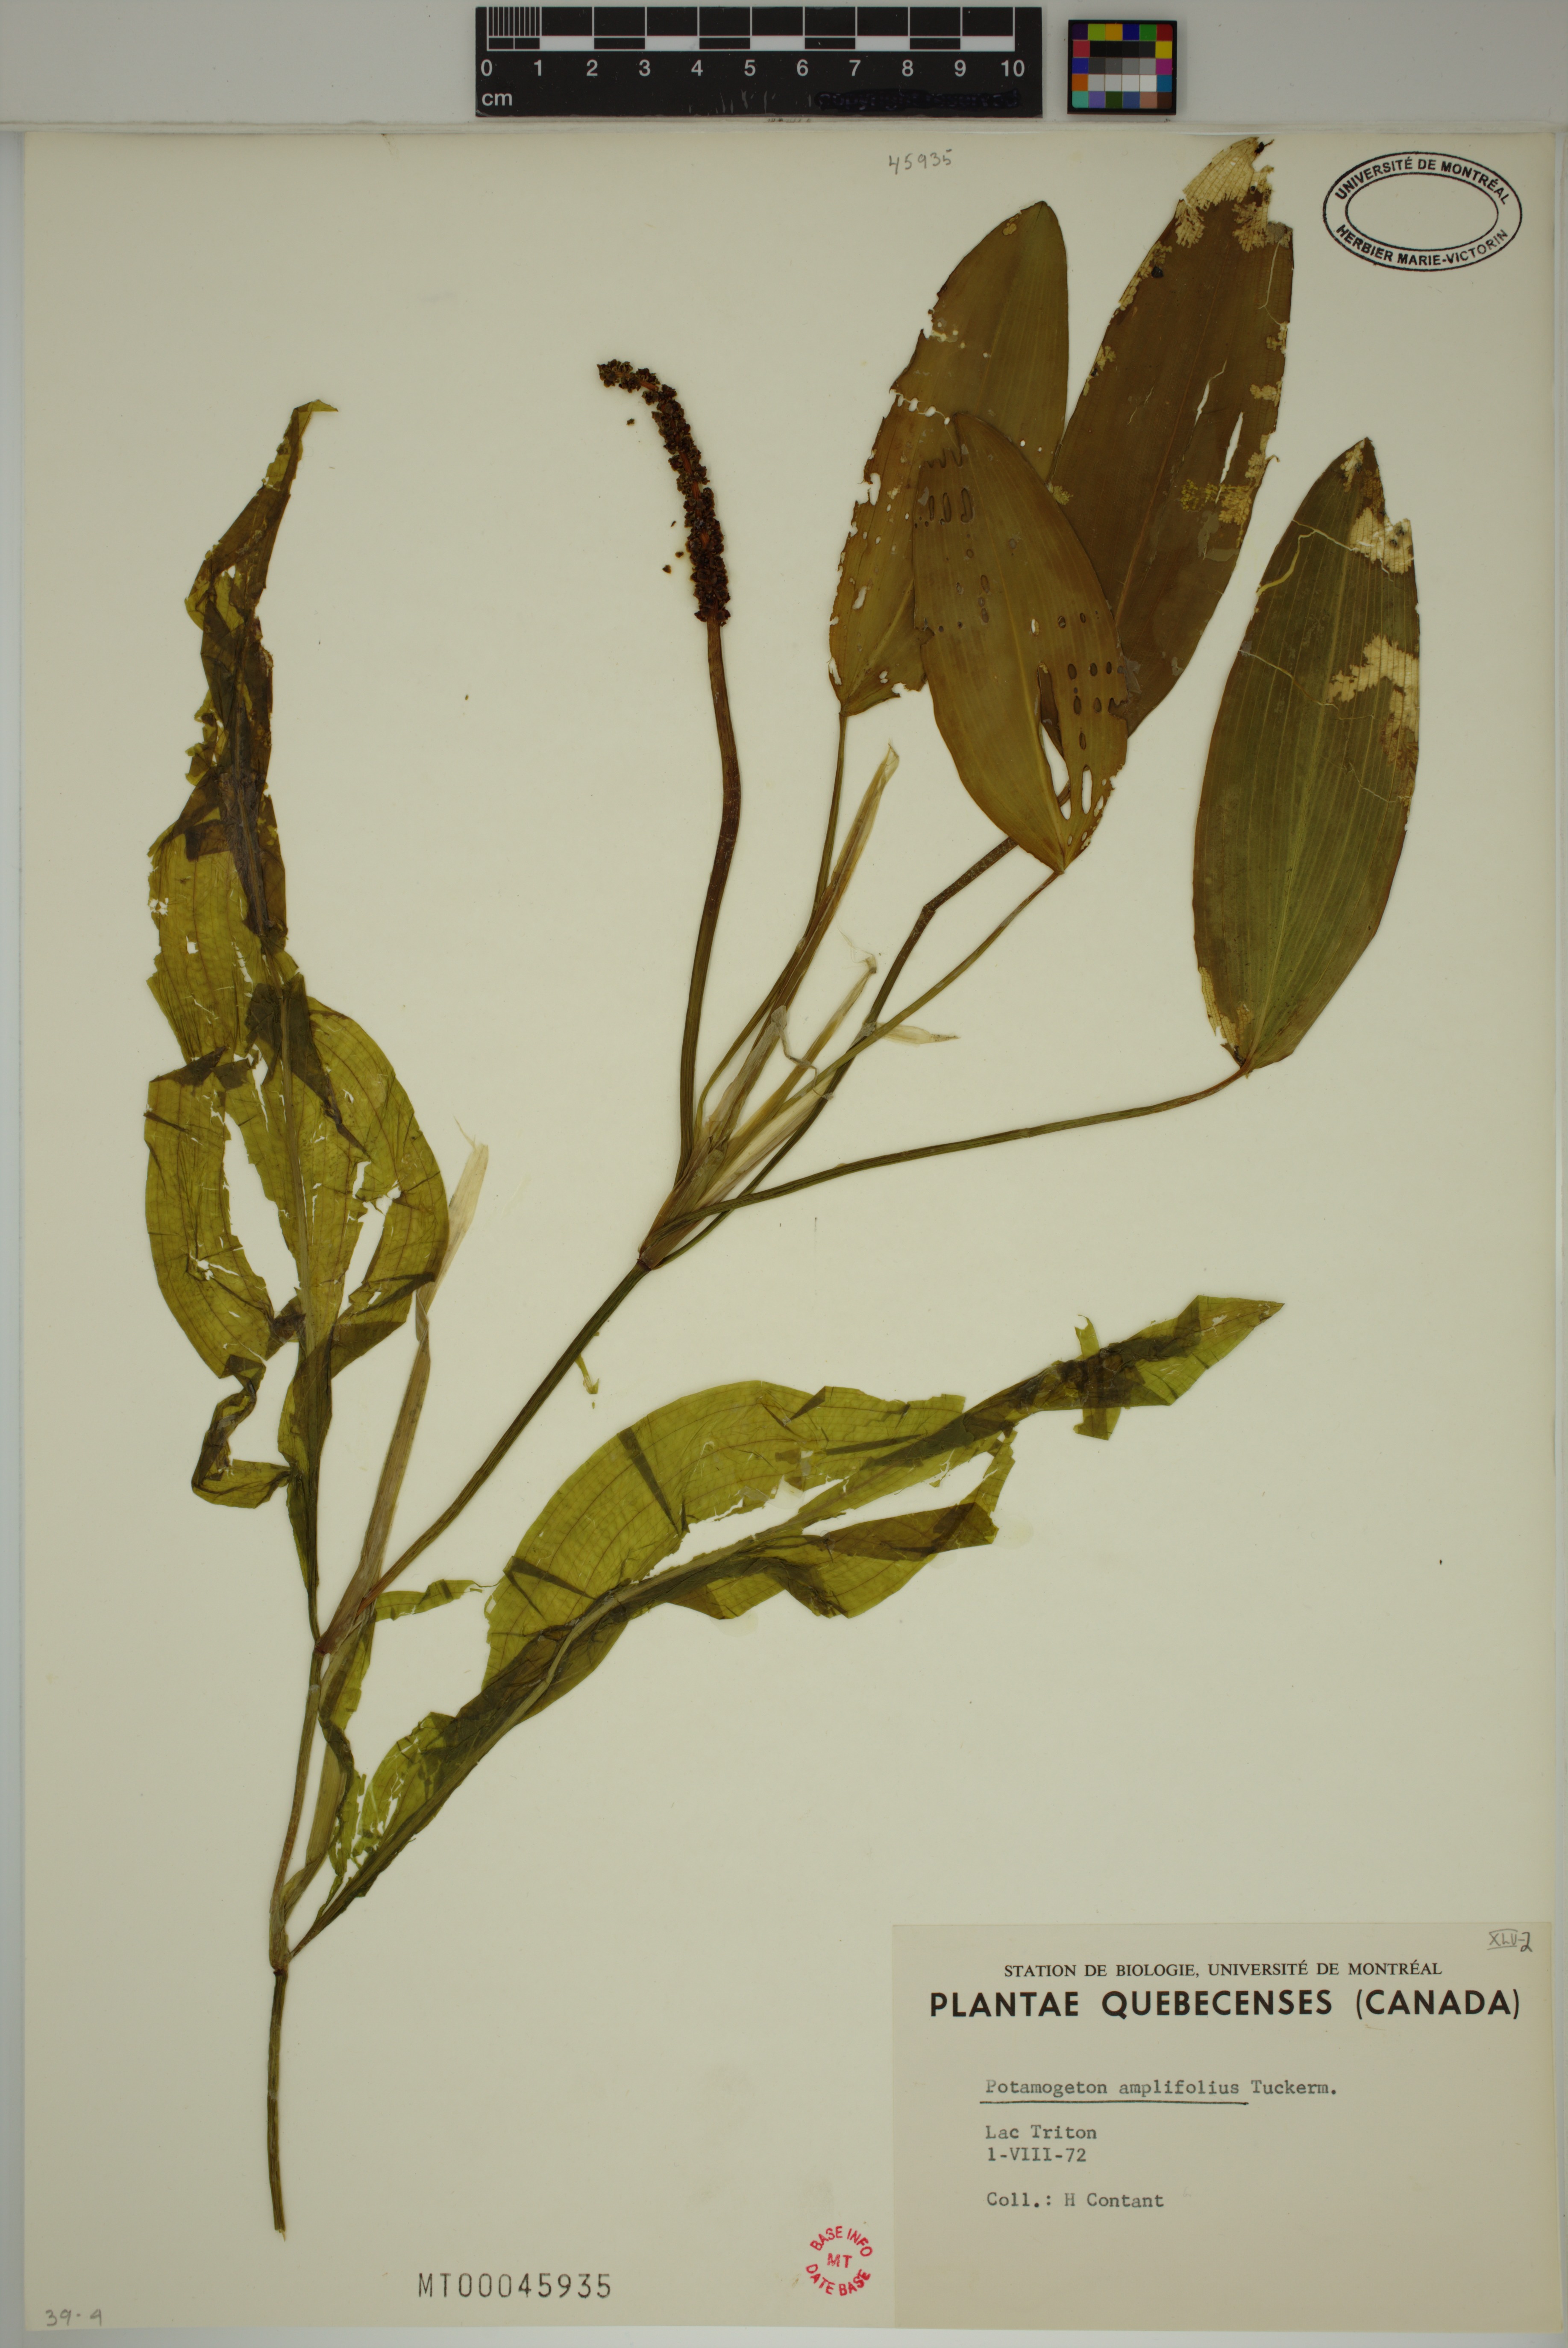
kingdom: Plantae
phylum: Tracheophyta
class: Liliopsida
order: Alismatales
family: Potamogetonaceae
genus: Potamogeton
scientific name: Potamogeton amplifolius
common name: Broad-leaved pondweed
